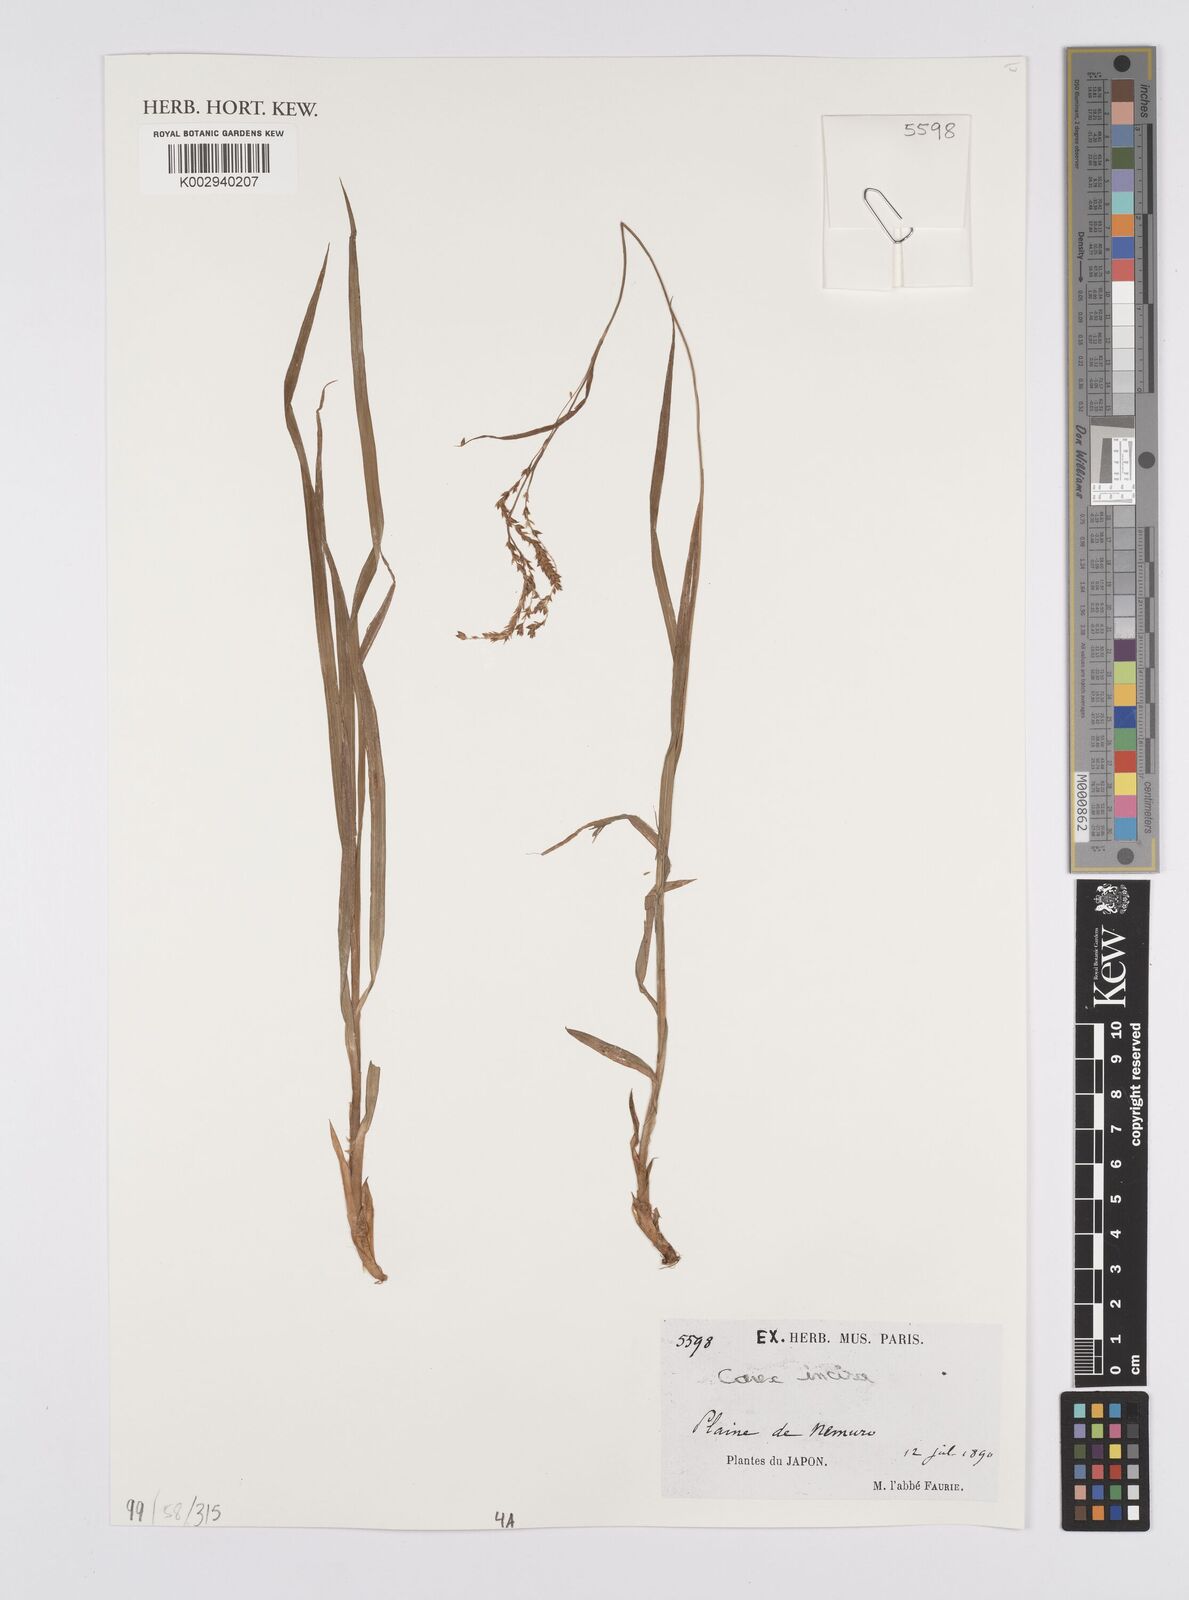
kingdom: Plantae
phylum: Tracheophyta
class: Liliopsida
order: Poales
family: Cyperaceae
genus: Carex
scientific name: Carex incisa
